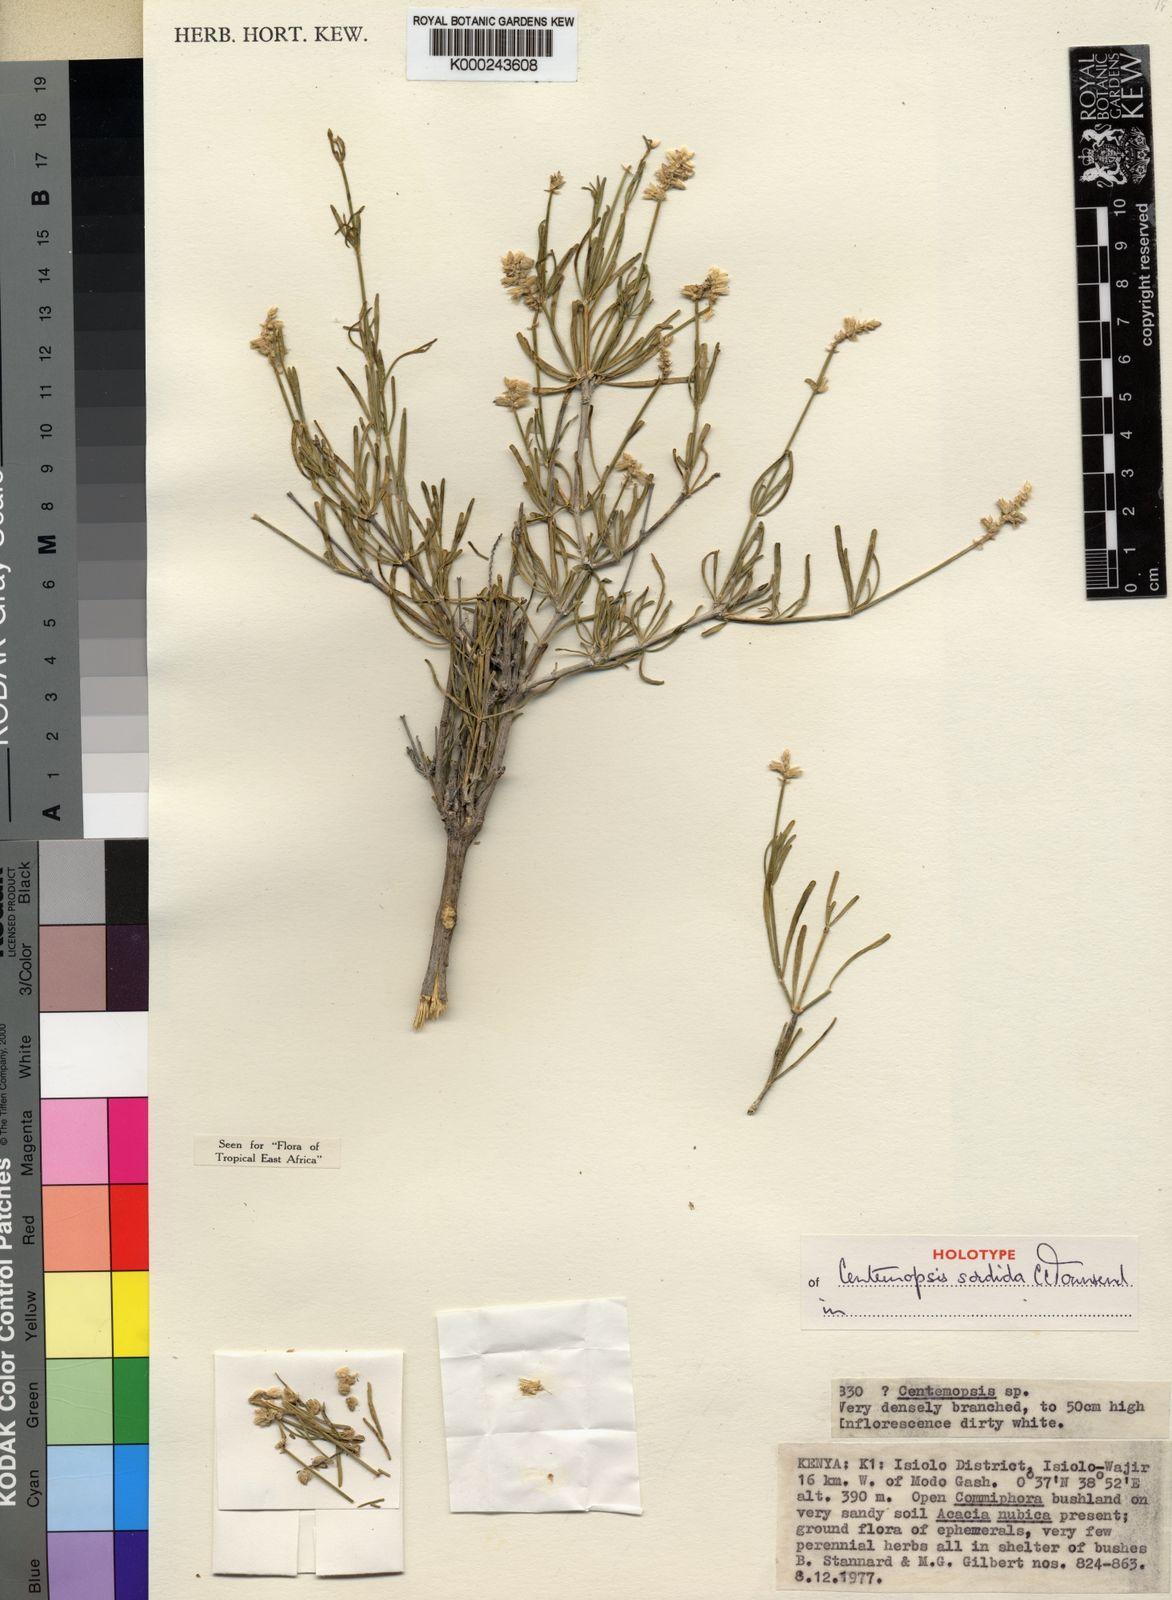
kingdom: Plantae
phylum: Tracheophyta
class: Magnoliopsida
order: Caryophyllales
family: Amaranthaceae
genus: Centemopsis
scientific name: Centemopsis sordida
